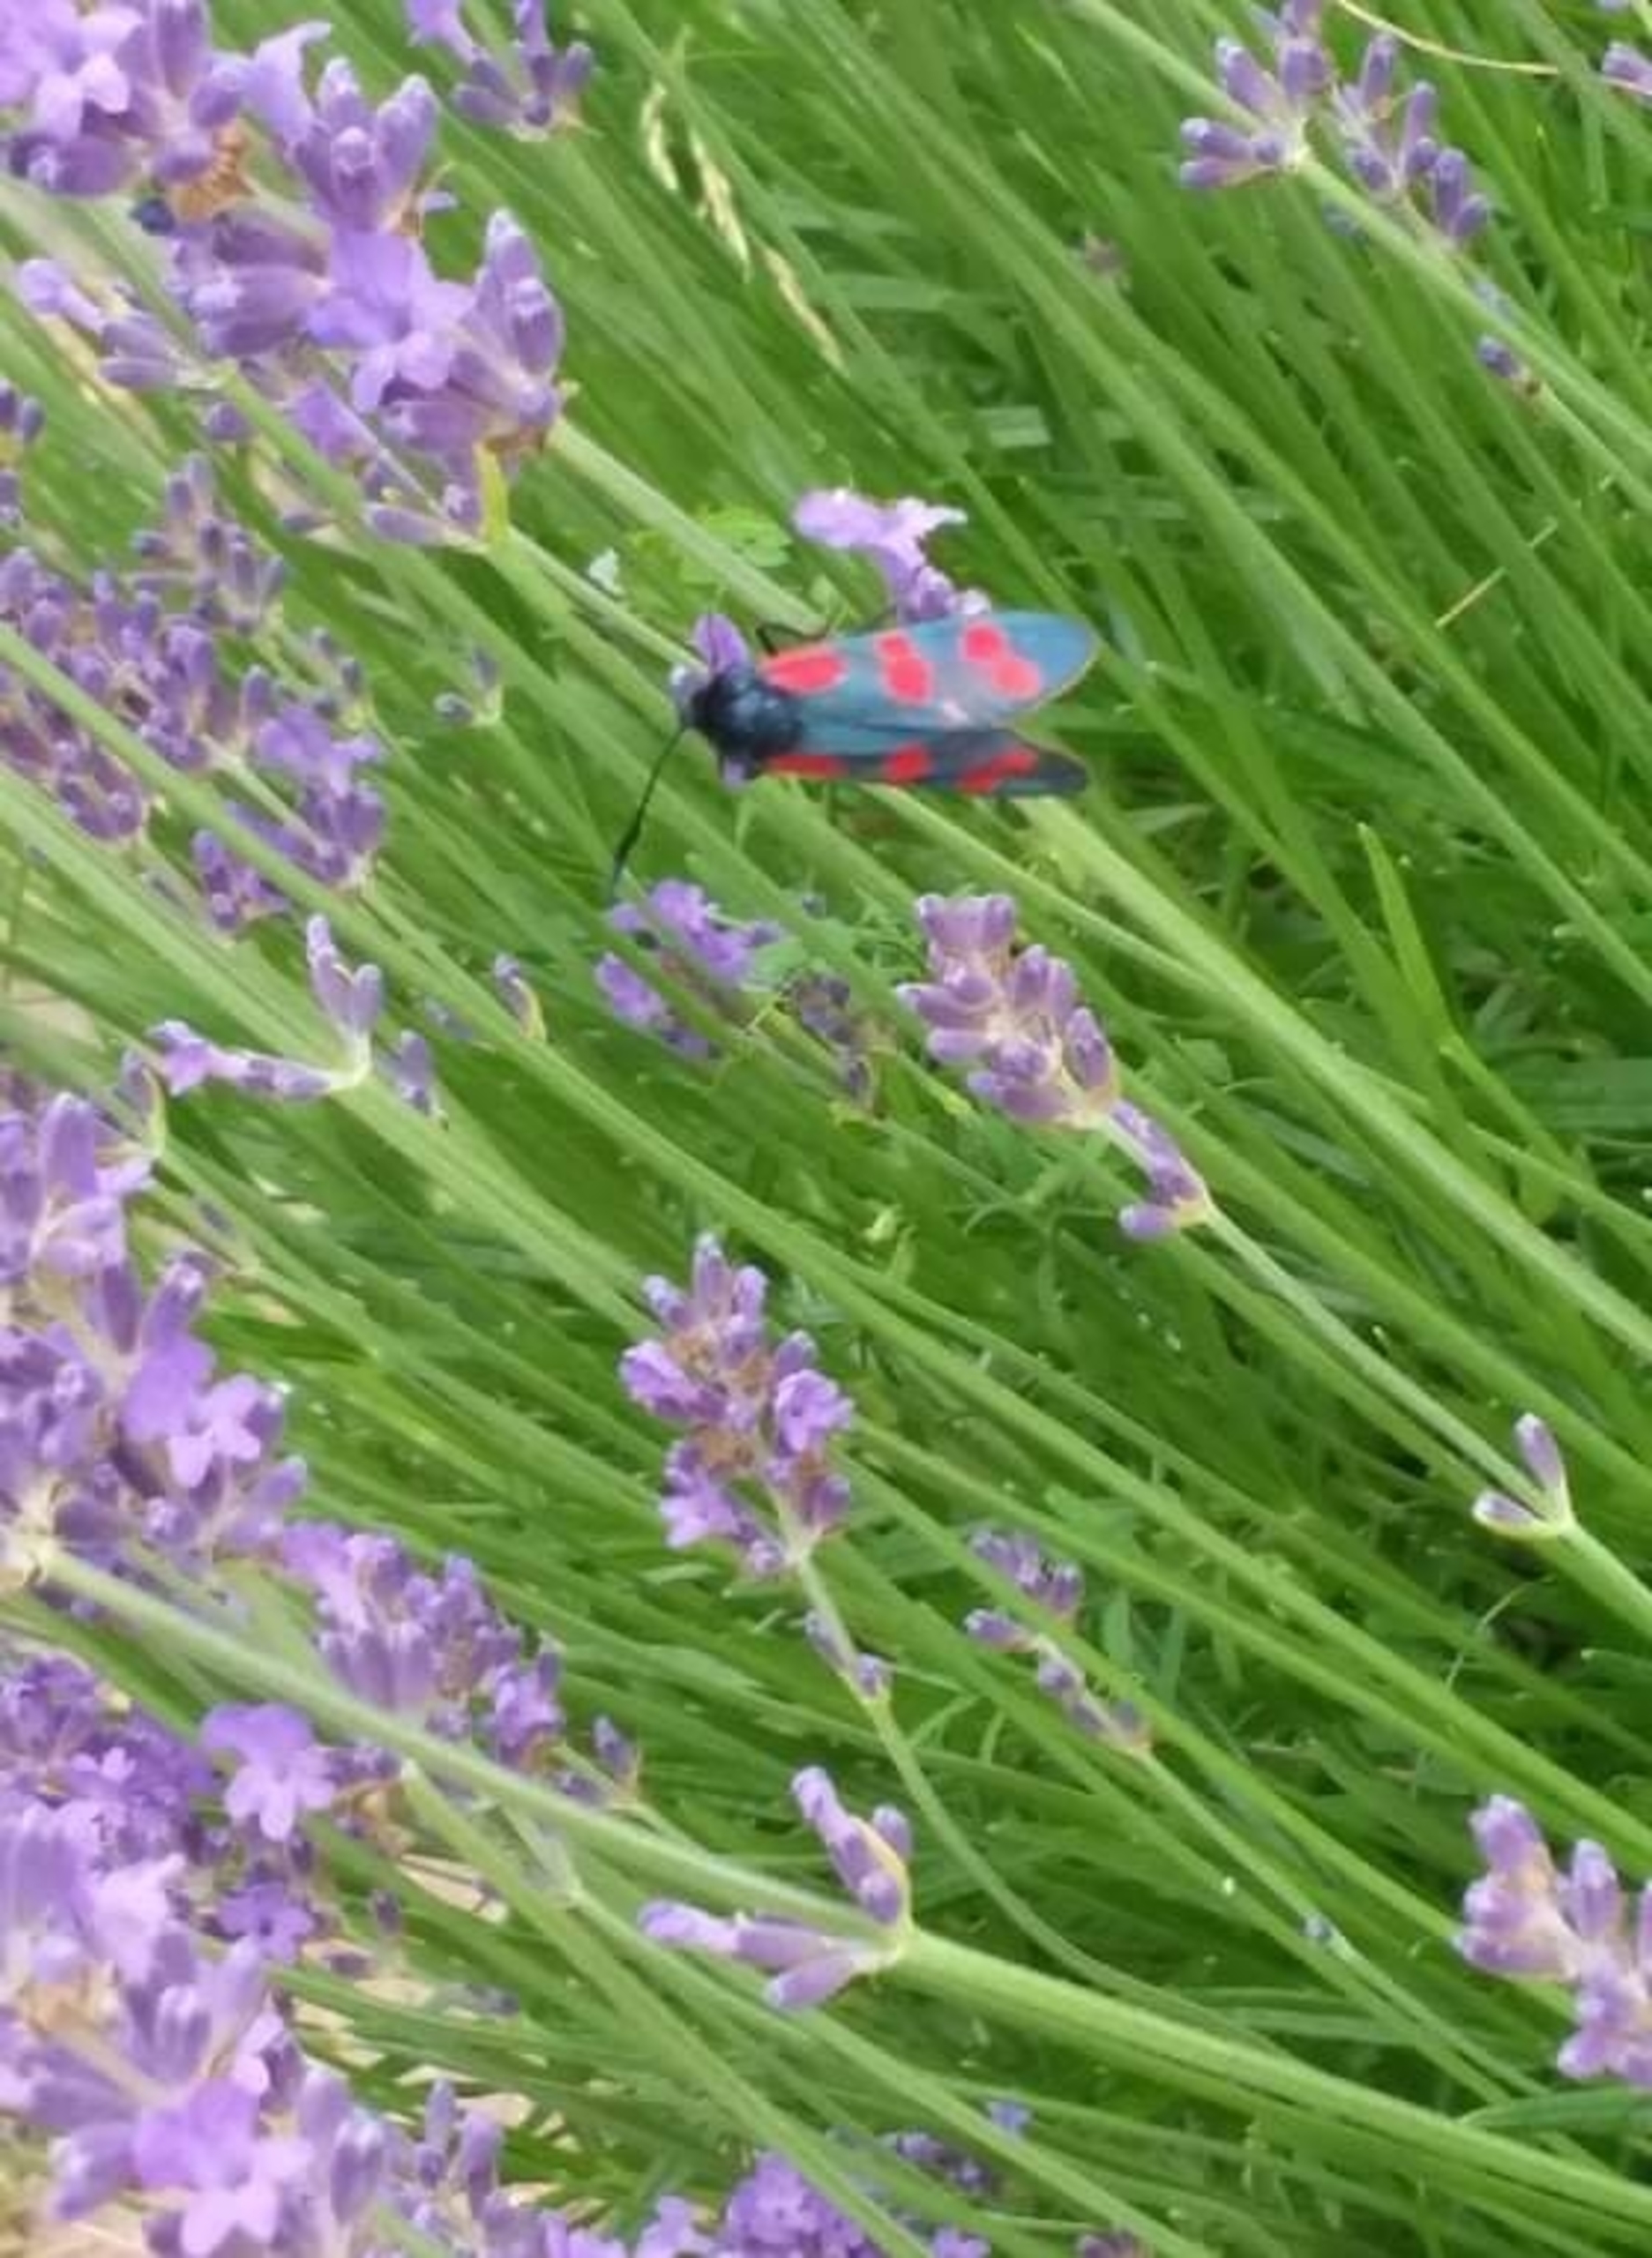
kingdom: Animalia
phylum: Arthropoda
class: Insecta
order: Lepidoptera
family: Zygaenidae
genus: Zygaena
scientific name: Zygaena filipendulae
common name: Seksplettet køllesværmer
